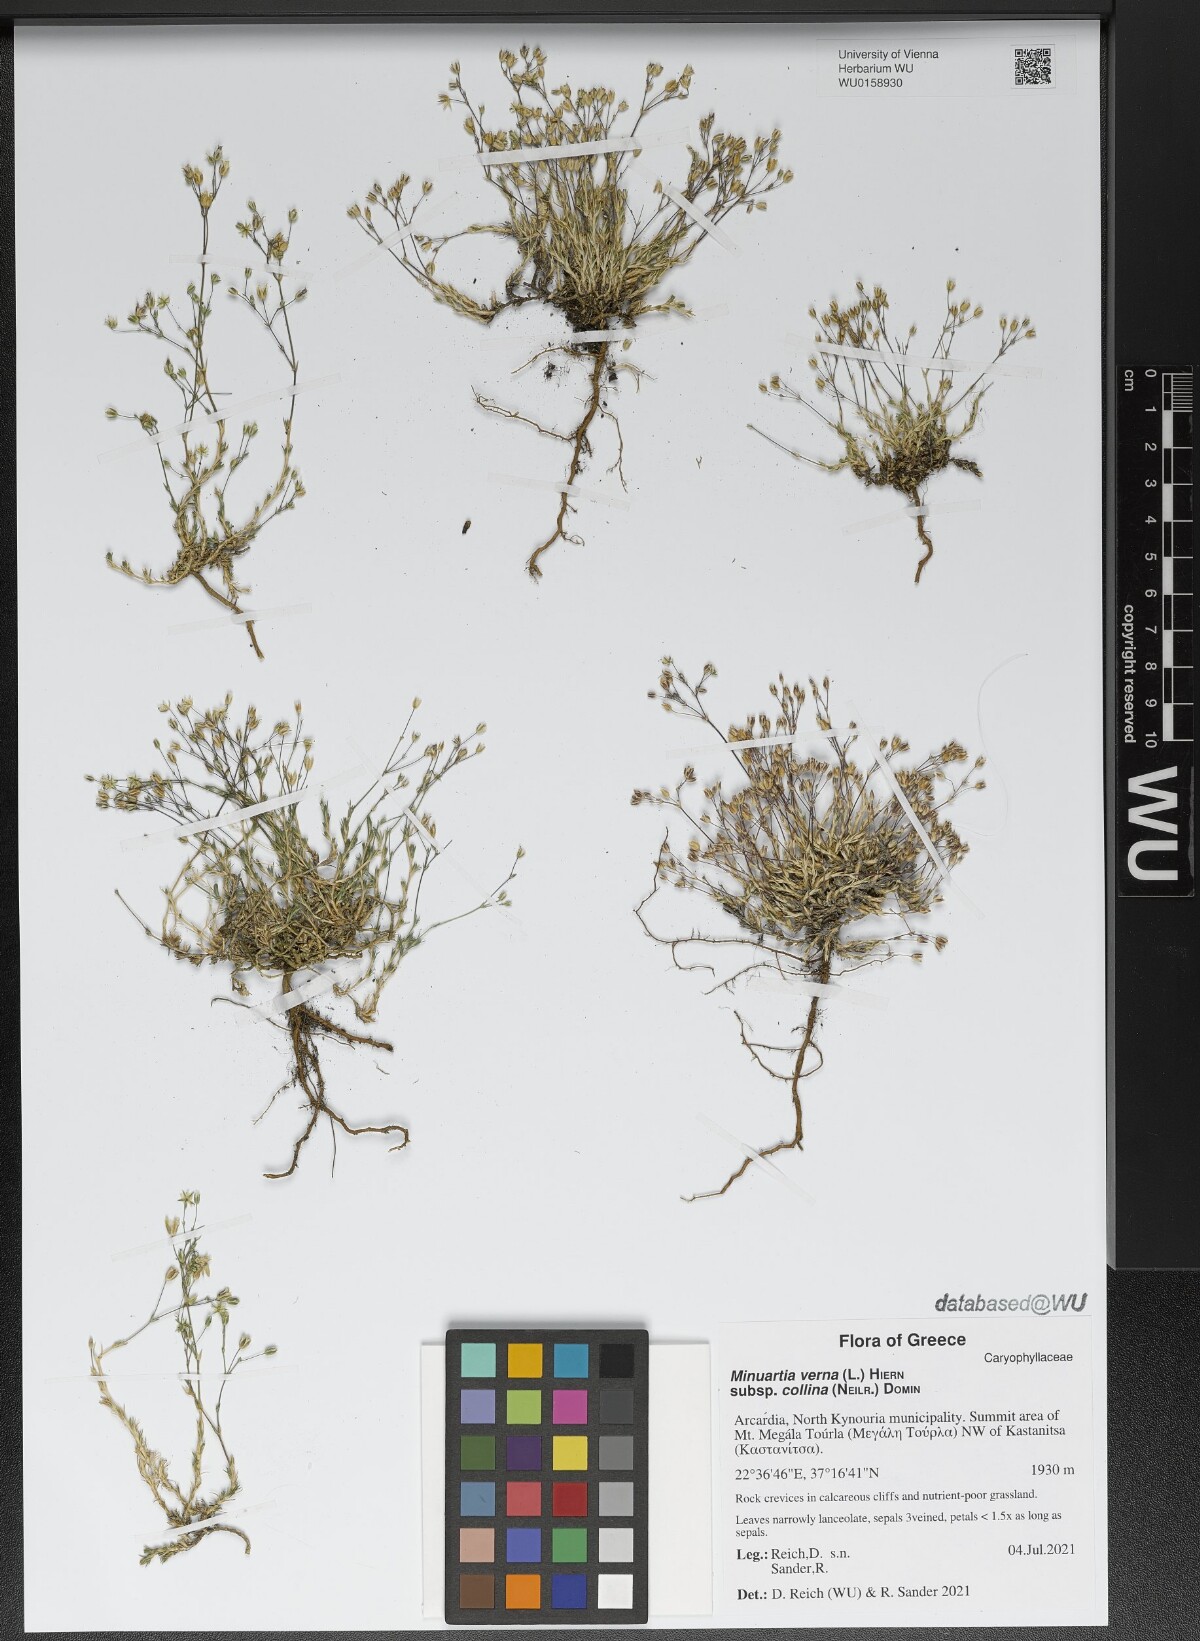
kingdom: Plantae
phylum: Tracheophyta
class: Magnoliopsida
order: Caryophyllales
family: Caryophyllaceae
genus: Sabulina
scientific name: Sabulina glaucina
